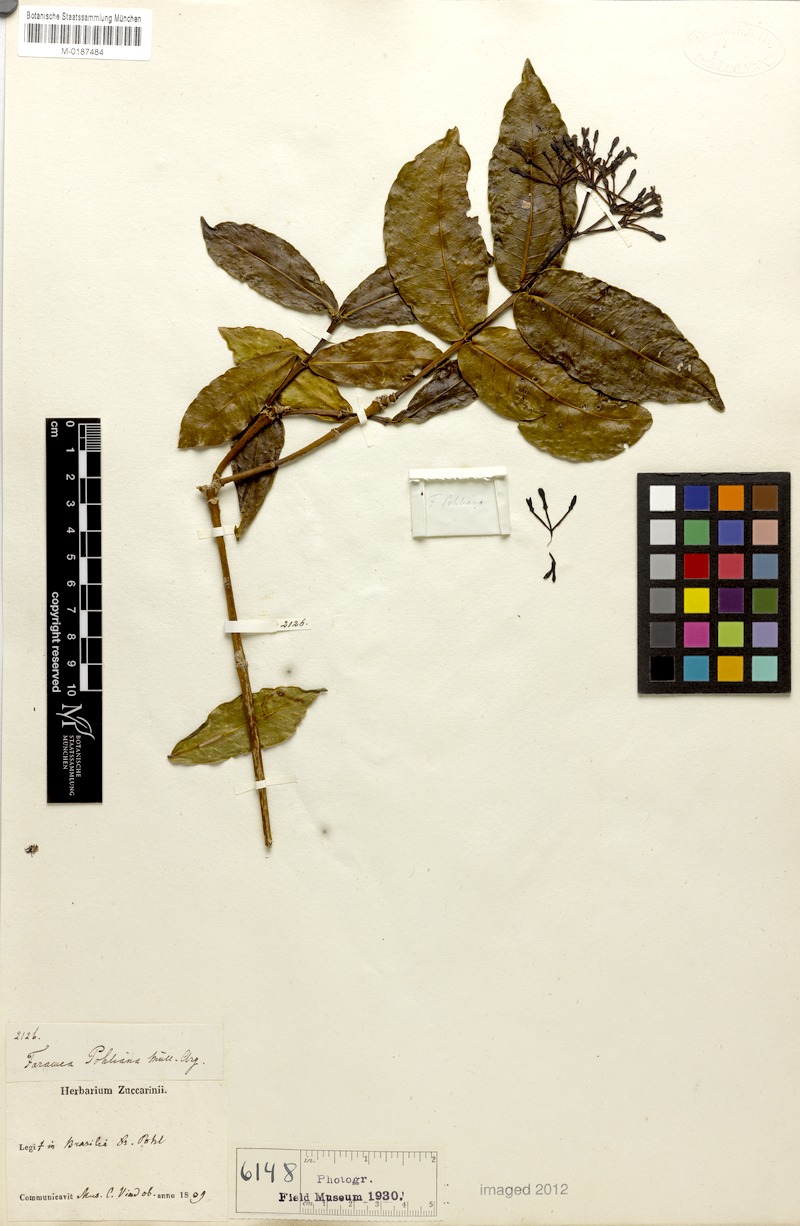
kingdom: Plantae
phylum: Tracheophyta
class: Magnoliopsida
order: Gentianales
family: Rubiaceae
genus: Faramea
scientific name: Faramea pohliana
